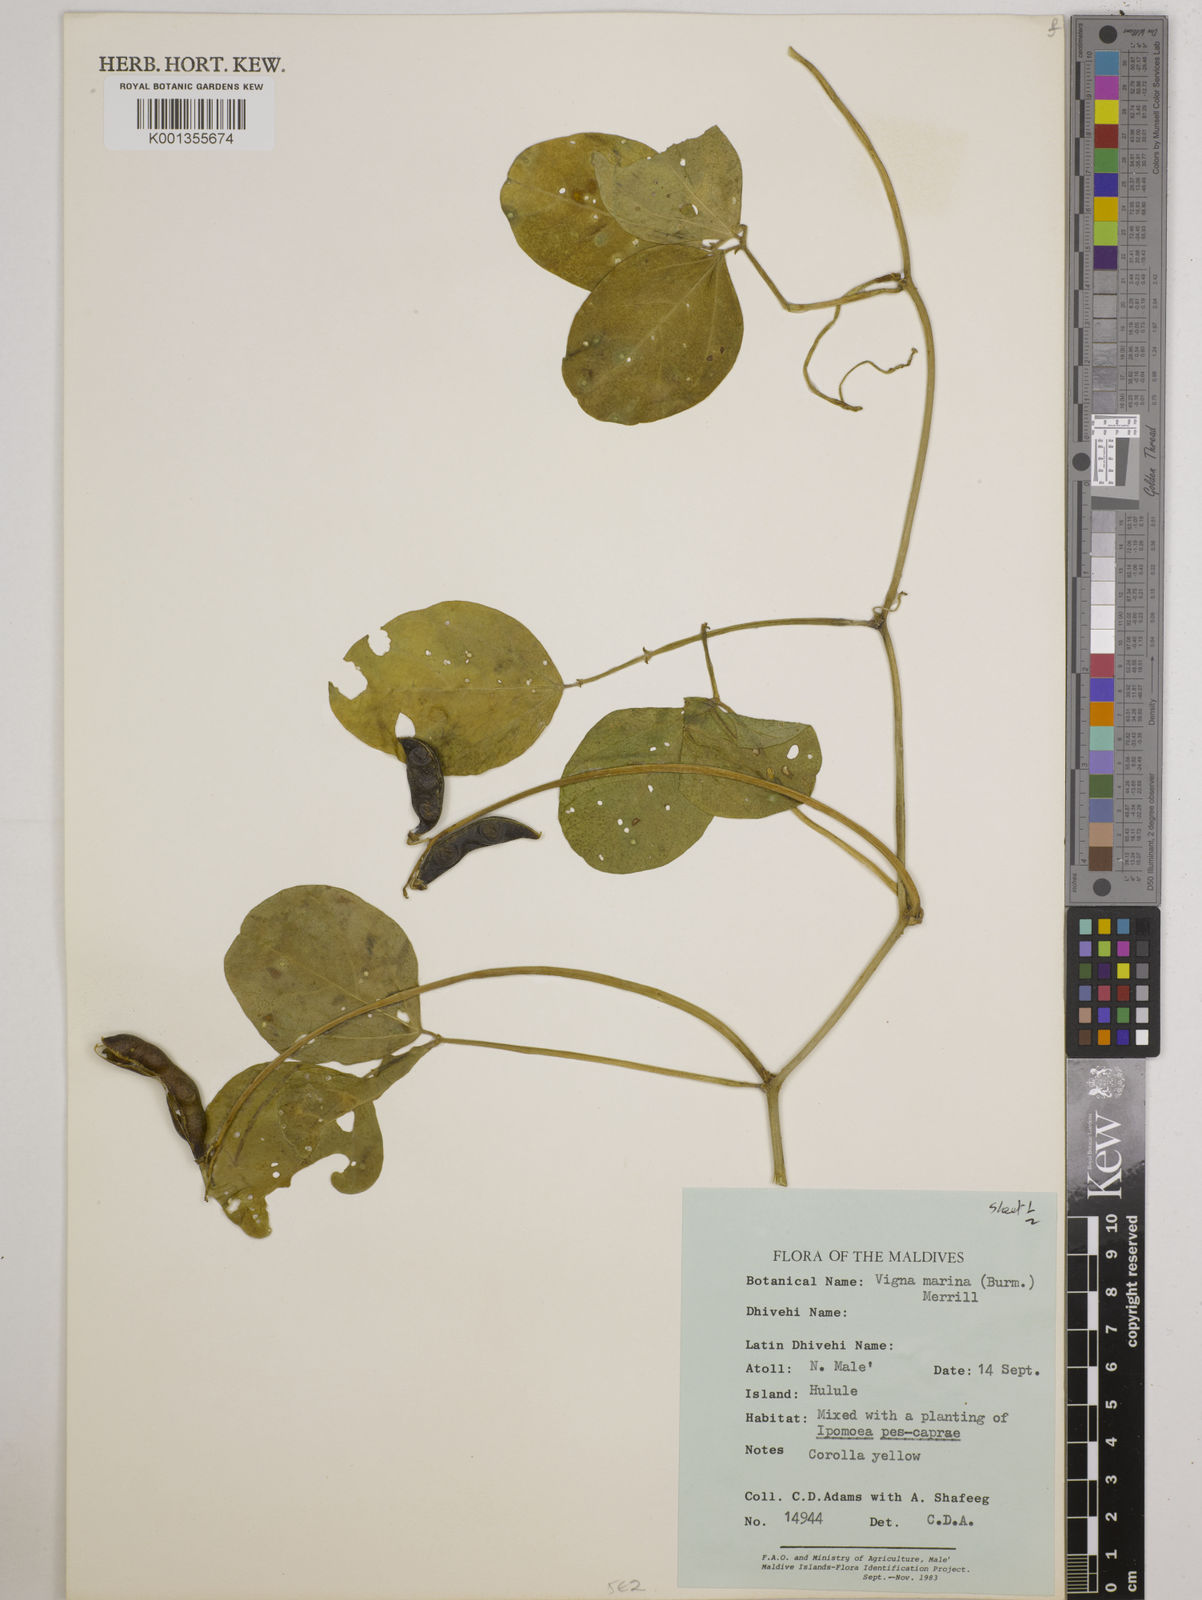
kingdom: Plantae
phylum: Tracheophyta
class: Magnoliopsida
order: Fabales
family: Fabaceae
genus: Vigna
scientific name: Vigna marina
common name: Dune-bean
